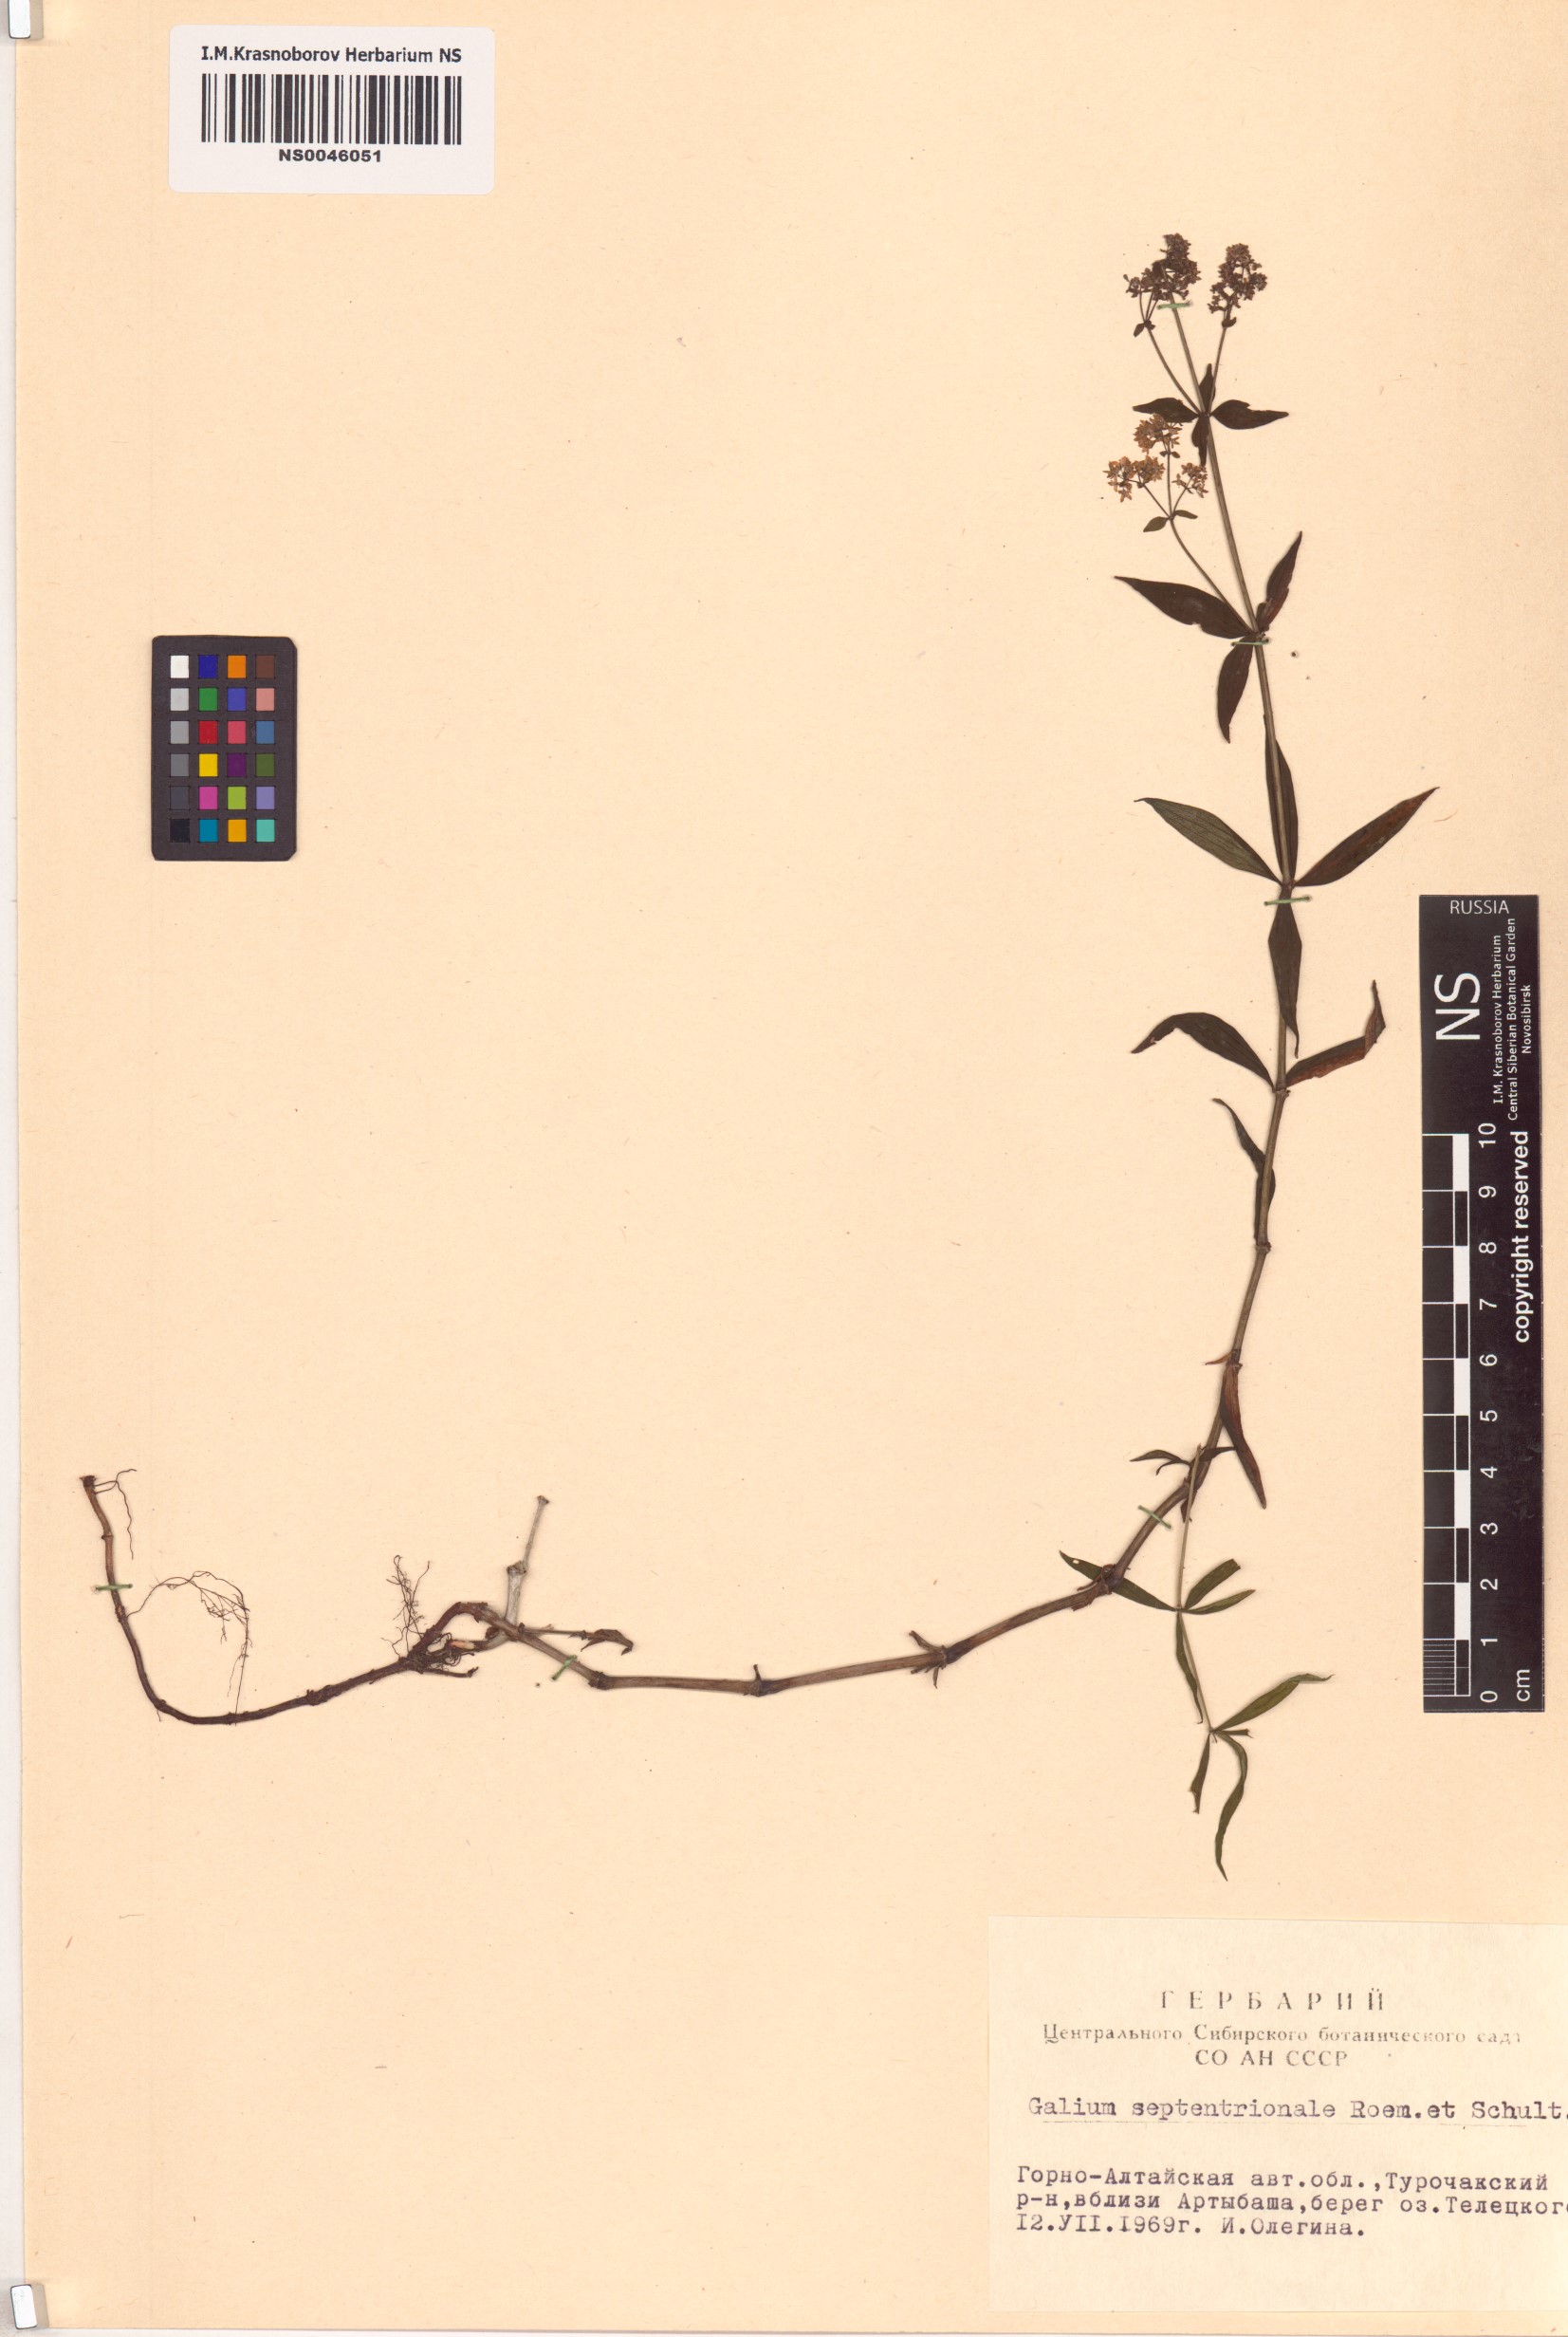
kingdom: Plantae
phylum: Tracheophyta
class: Magnoliopsida
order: Gentianales
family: Rubiaceae
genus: Galium
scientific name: Galium boreale
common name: Northern bedstraw
